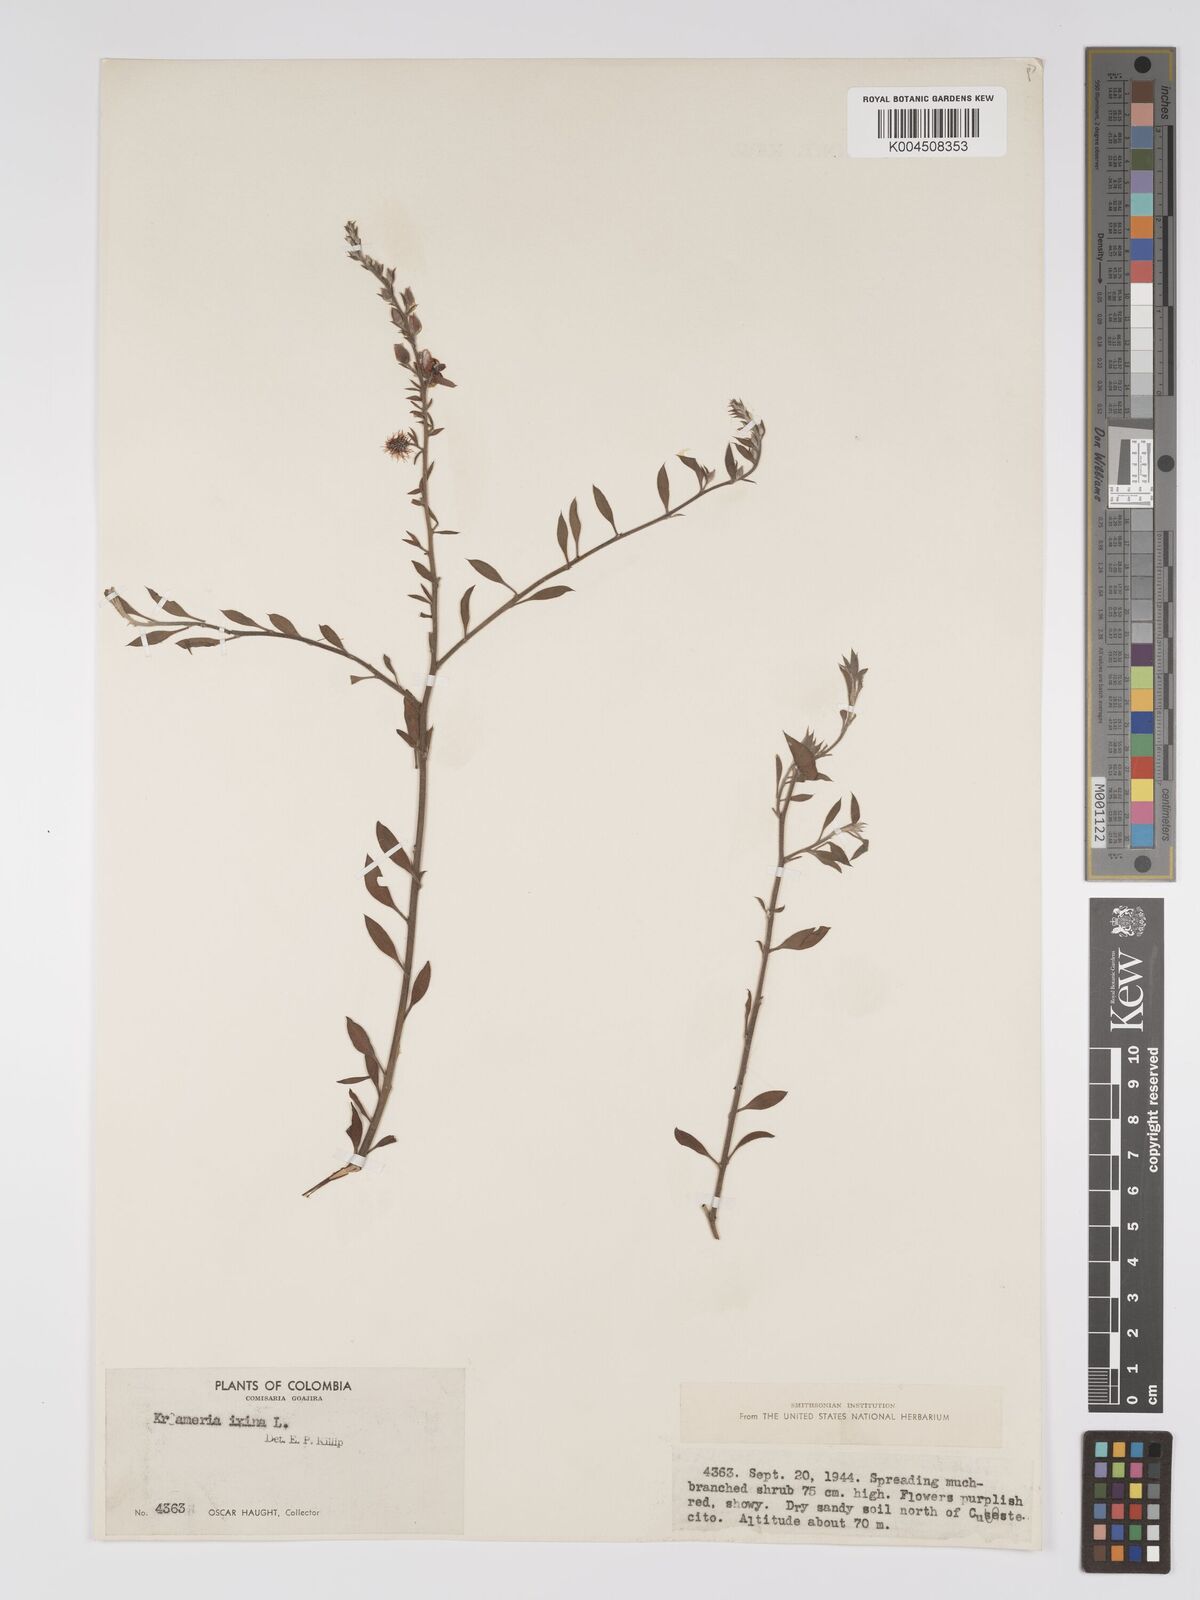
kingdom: Plantae
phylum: Tracheophyta
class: Magnoliopsida
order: Zygophyllales
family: Krameriaceae
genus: Krameria
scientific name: Krameria ixine
